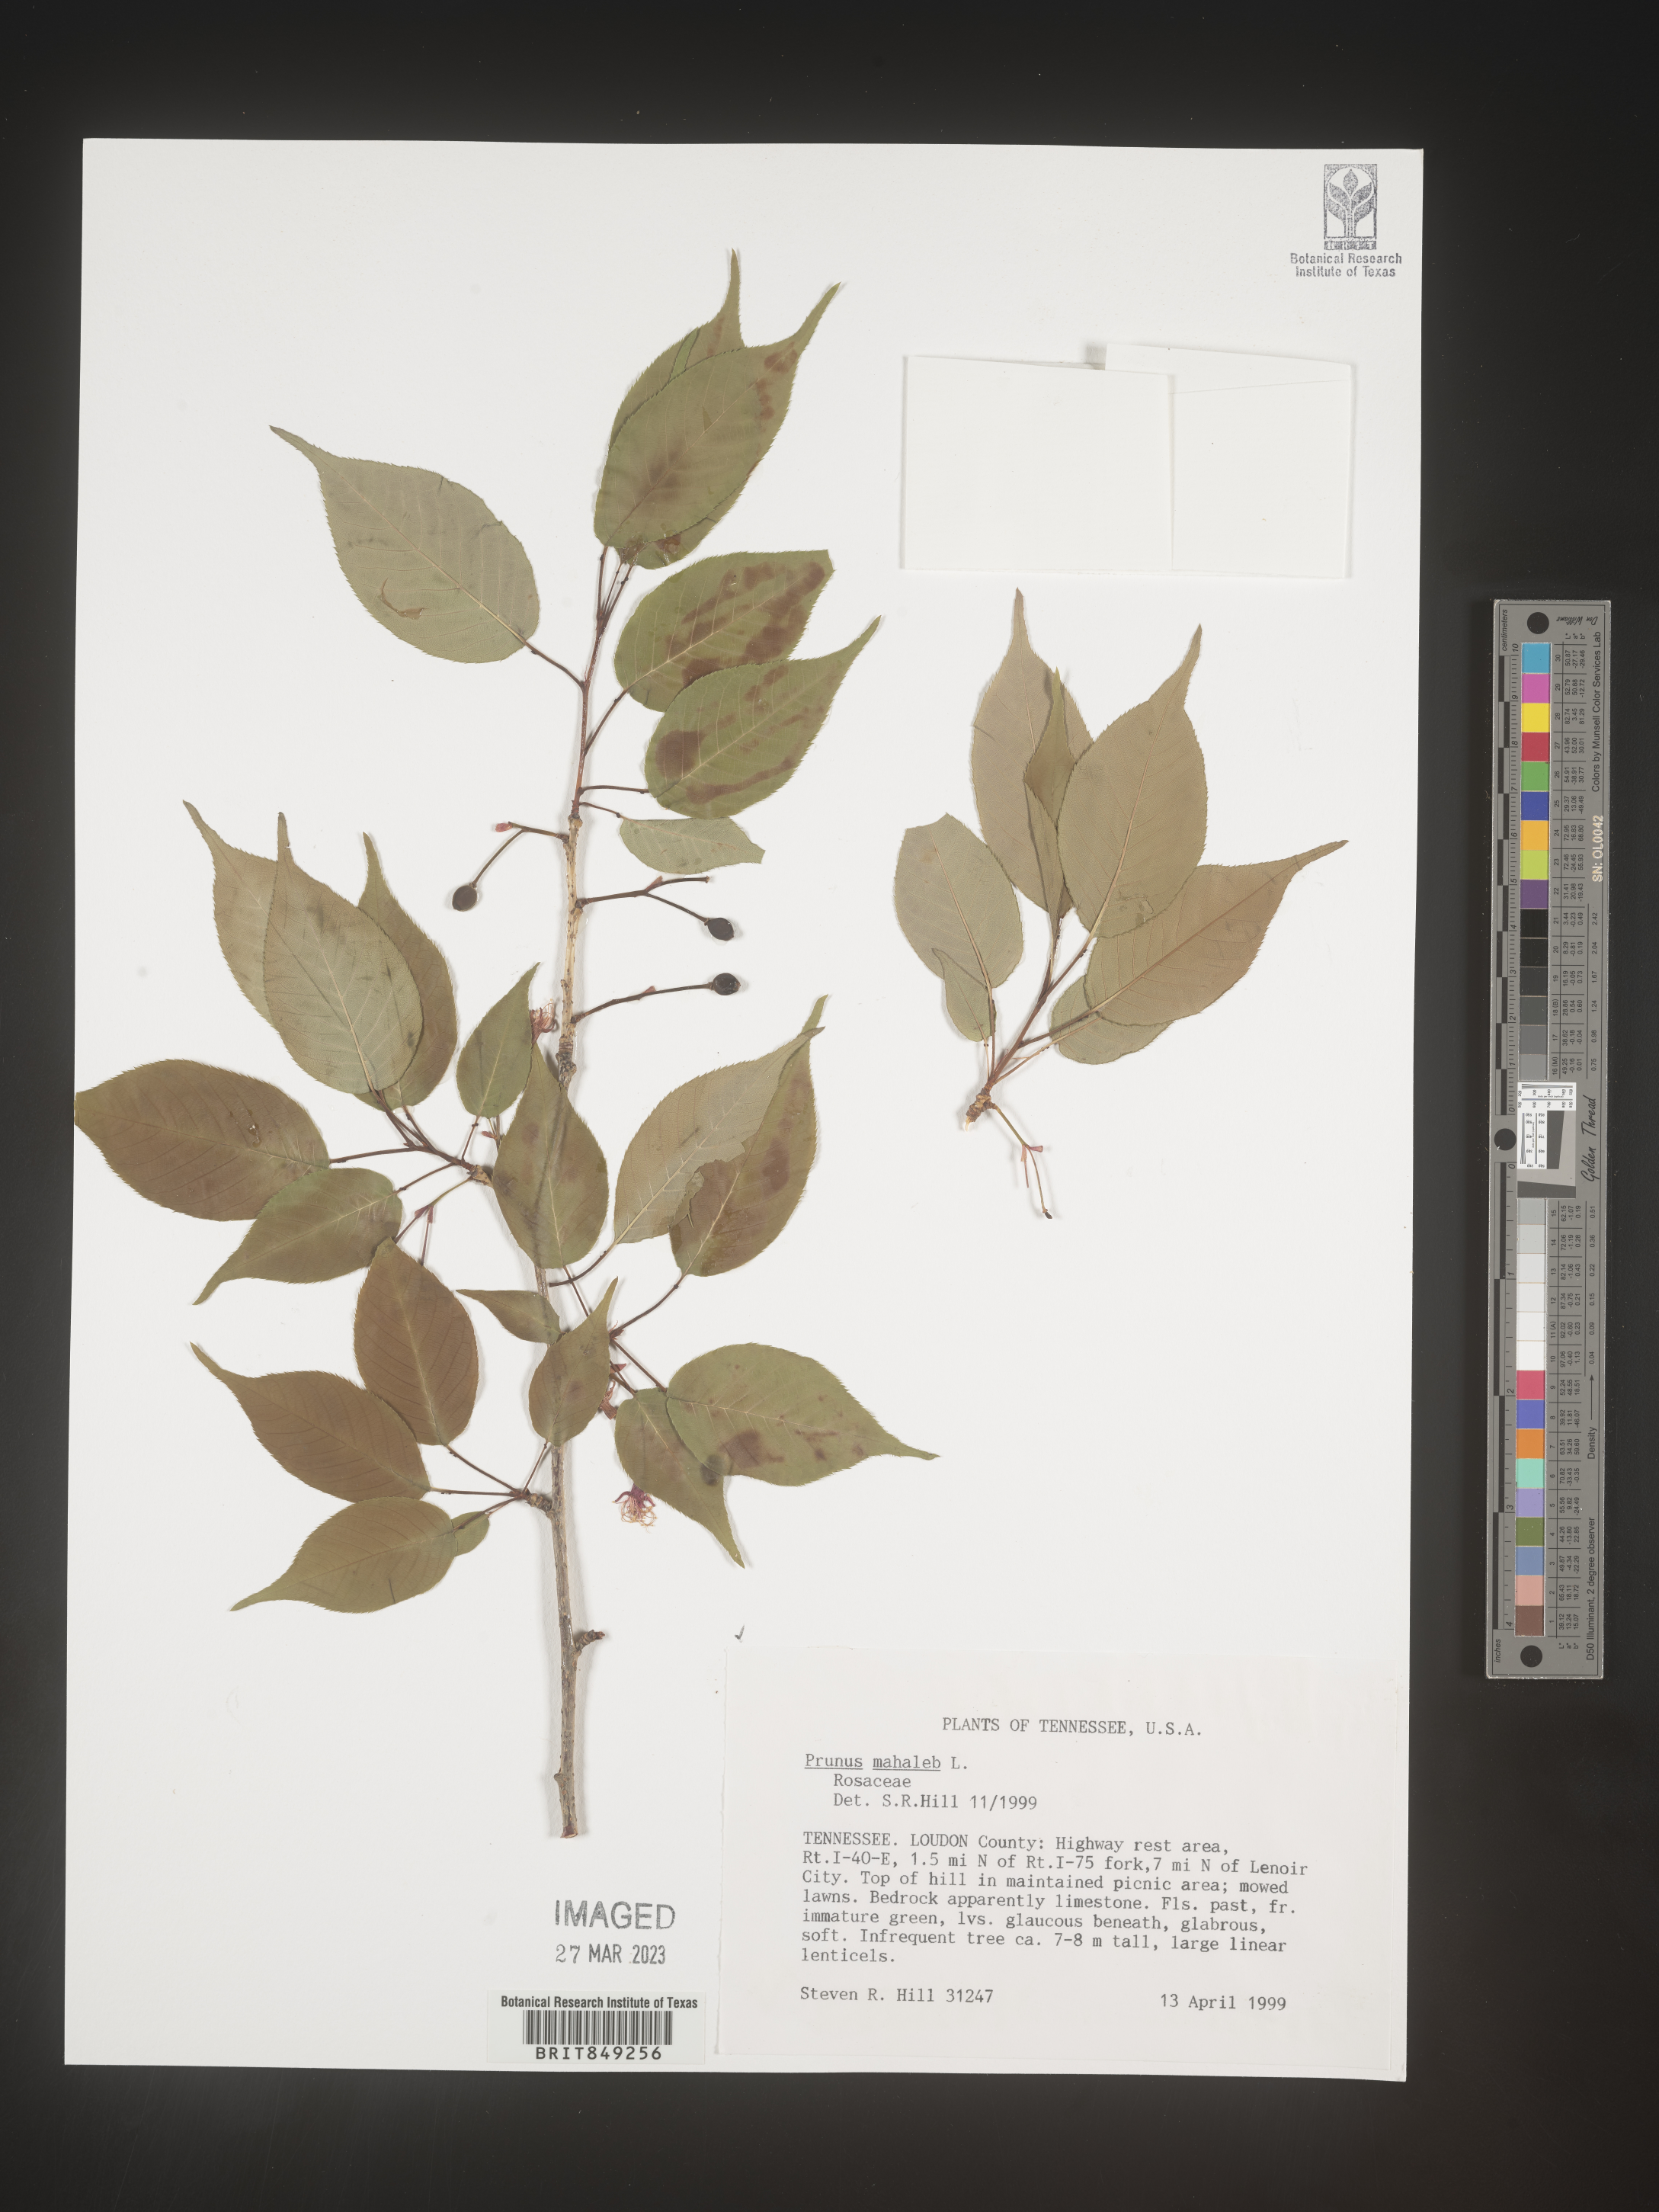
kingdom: Plantae
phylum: Tracheophyta
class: Magnoliopsida
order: Rosales
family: Rosaceae
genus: Prunus
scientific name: Prunus
